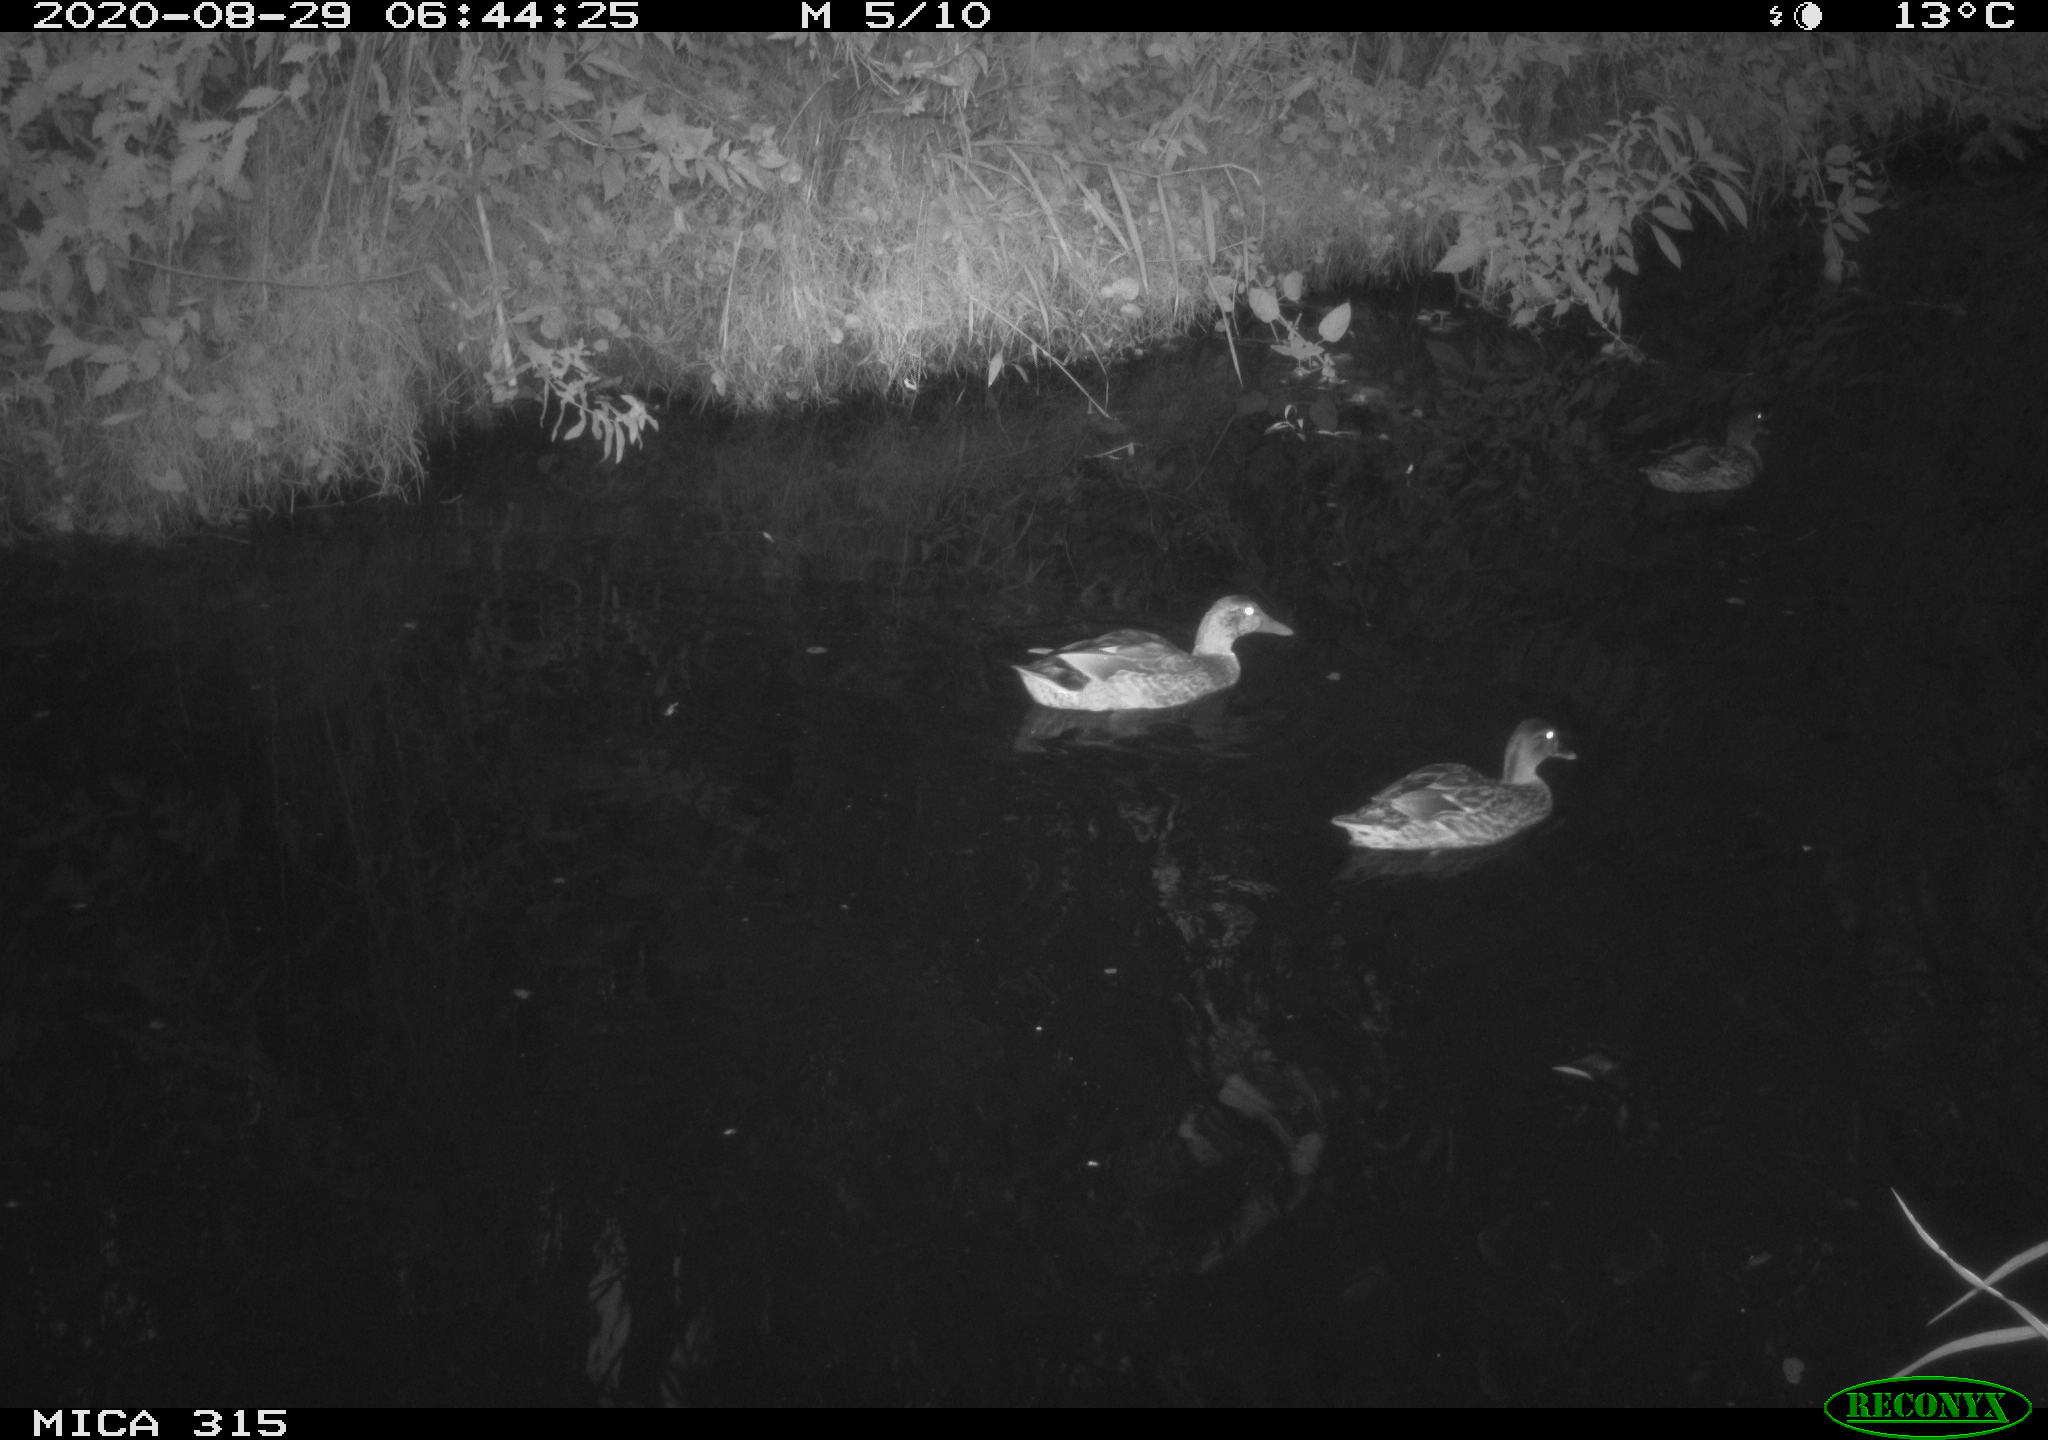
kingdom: Animalia
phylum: Chordata
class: Aves
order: Anseriformes
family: Anatidae
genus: Anas
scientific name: Anas platyrhynchos
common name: Mallard
